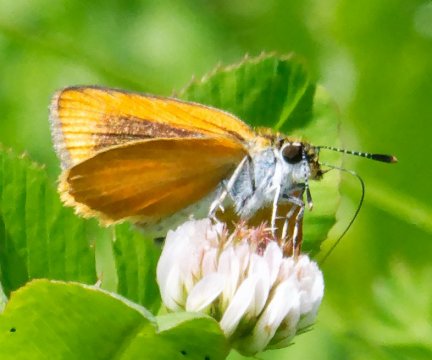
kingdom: Animalia
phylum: Arthropoda
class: Insecta
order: Lepidoptera
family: Hesperiidae
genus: Ancyloxypha
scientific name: Ancyloxypha numitor
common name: Least Skipper
